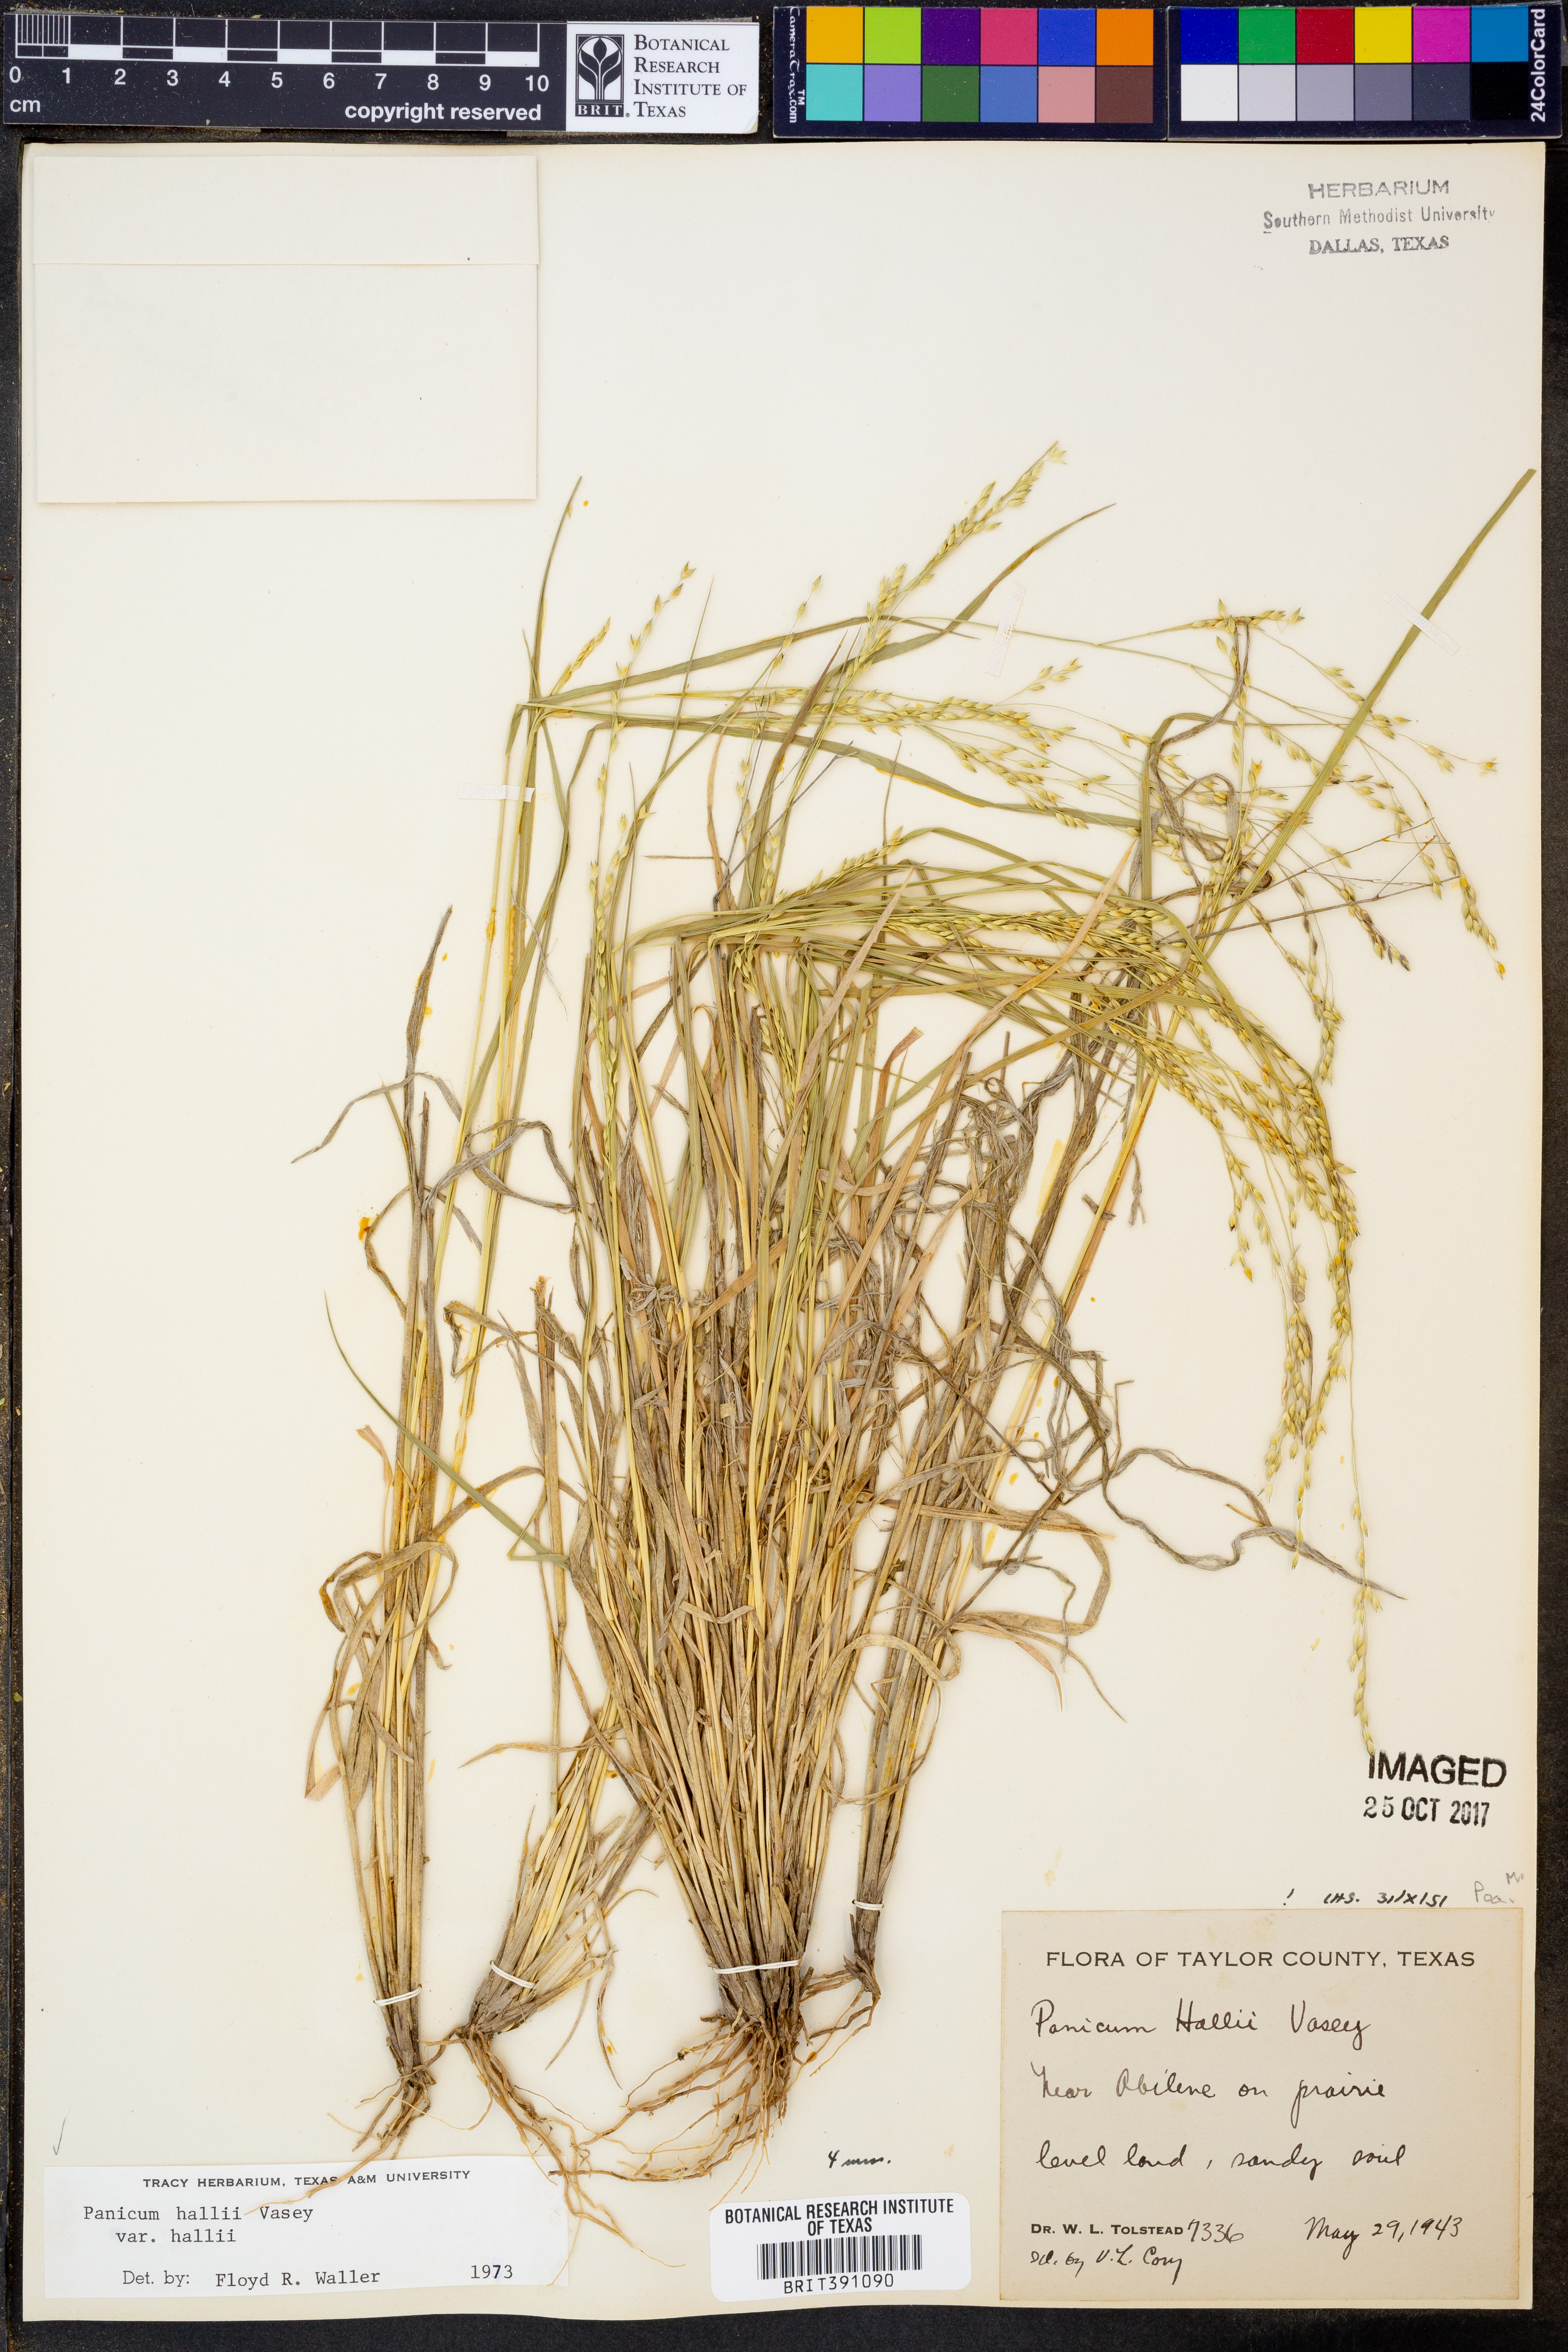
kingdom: Plantae
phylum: Tracheophyta
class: Liliopsida
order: Poales
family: Poaceae
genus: Panicum
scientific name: Panicum hallii
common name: Hall's witchgrass
